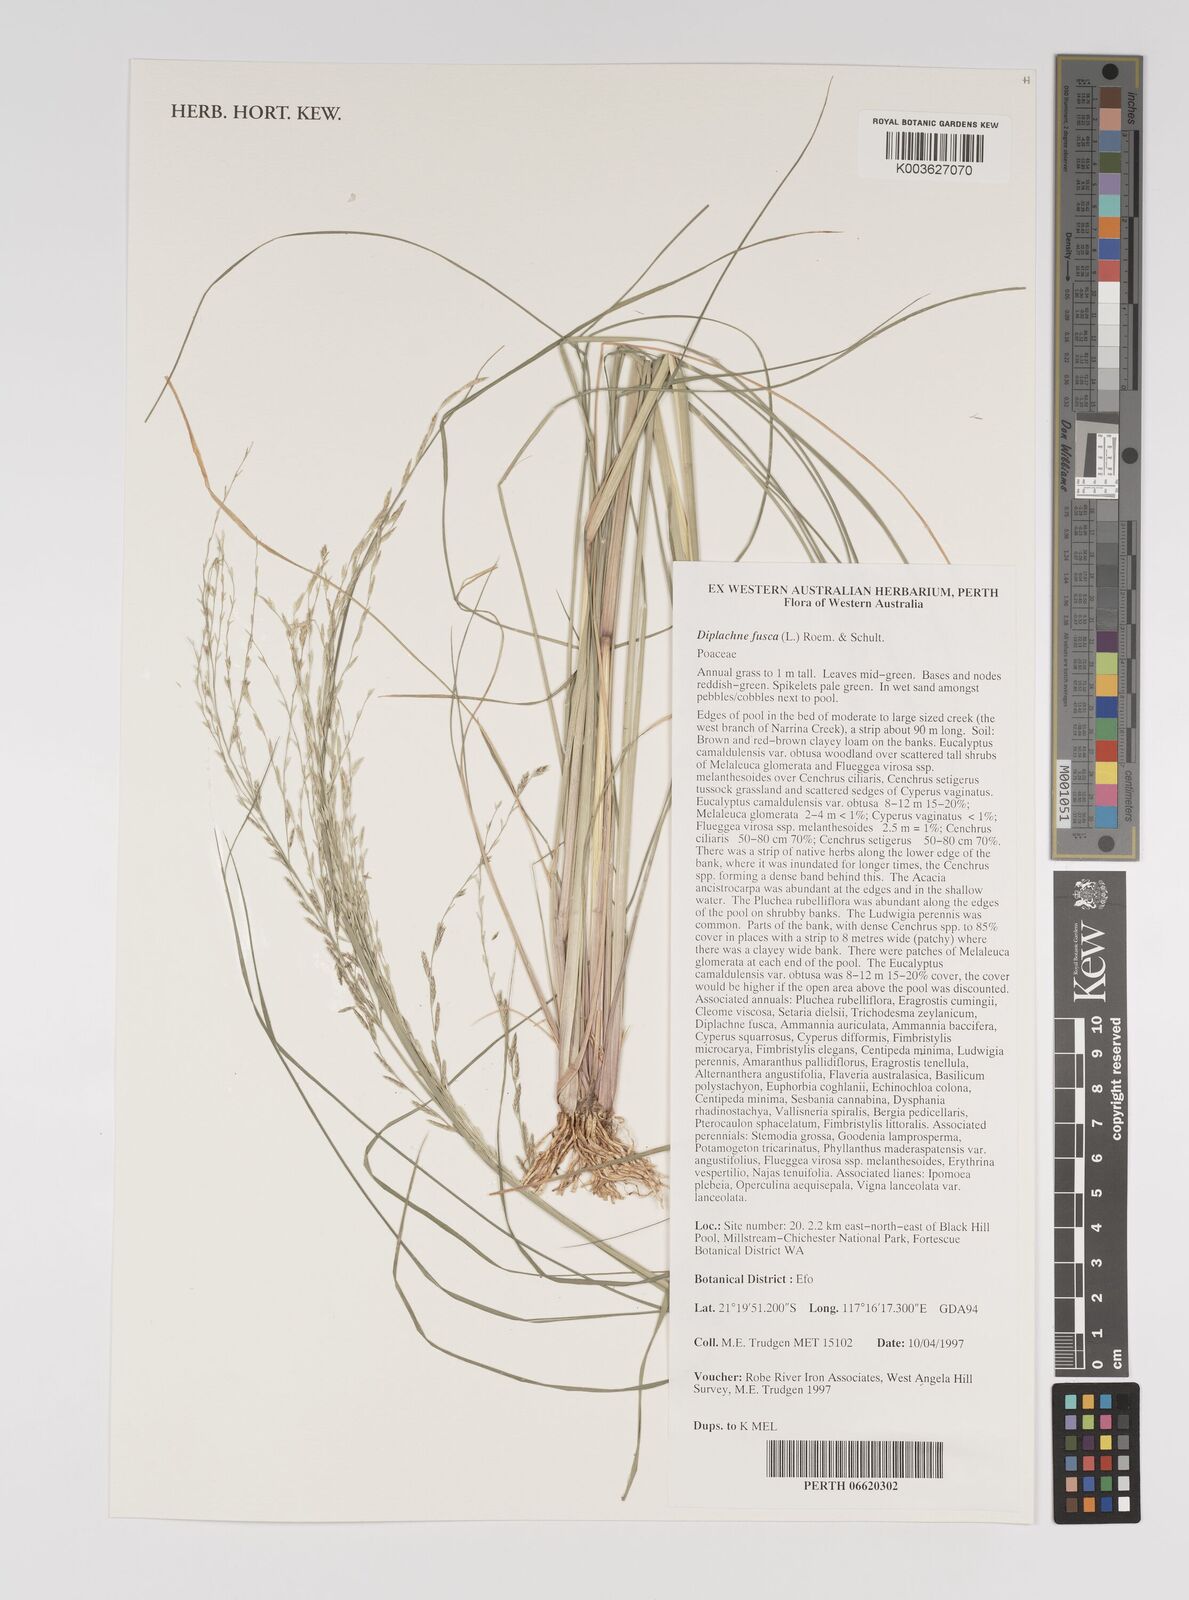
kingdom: Plantae
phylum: Tracheophyta
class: Liliopsida
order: Poales
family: Poaceae
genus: Diplachne
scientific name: Diplachne fusca
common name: Brown beetle grass
